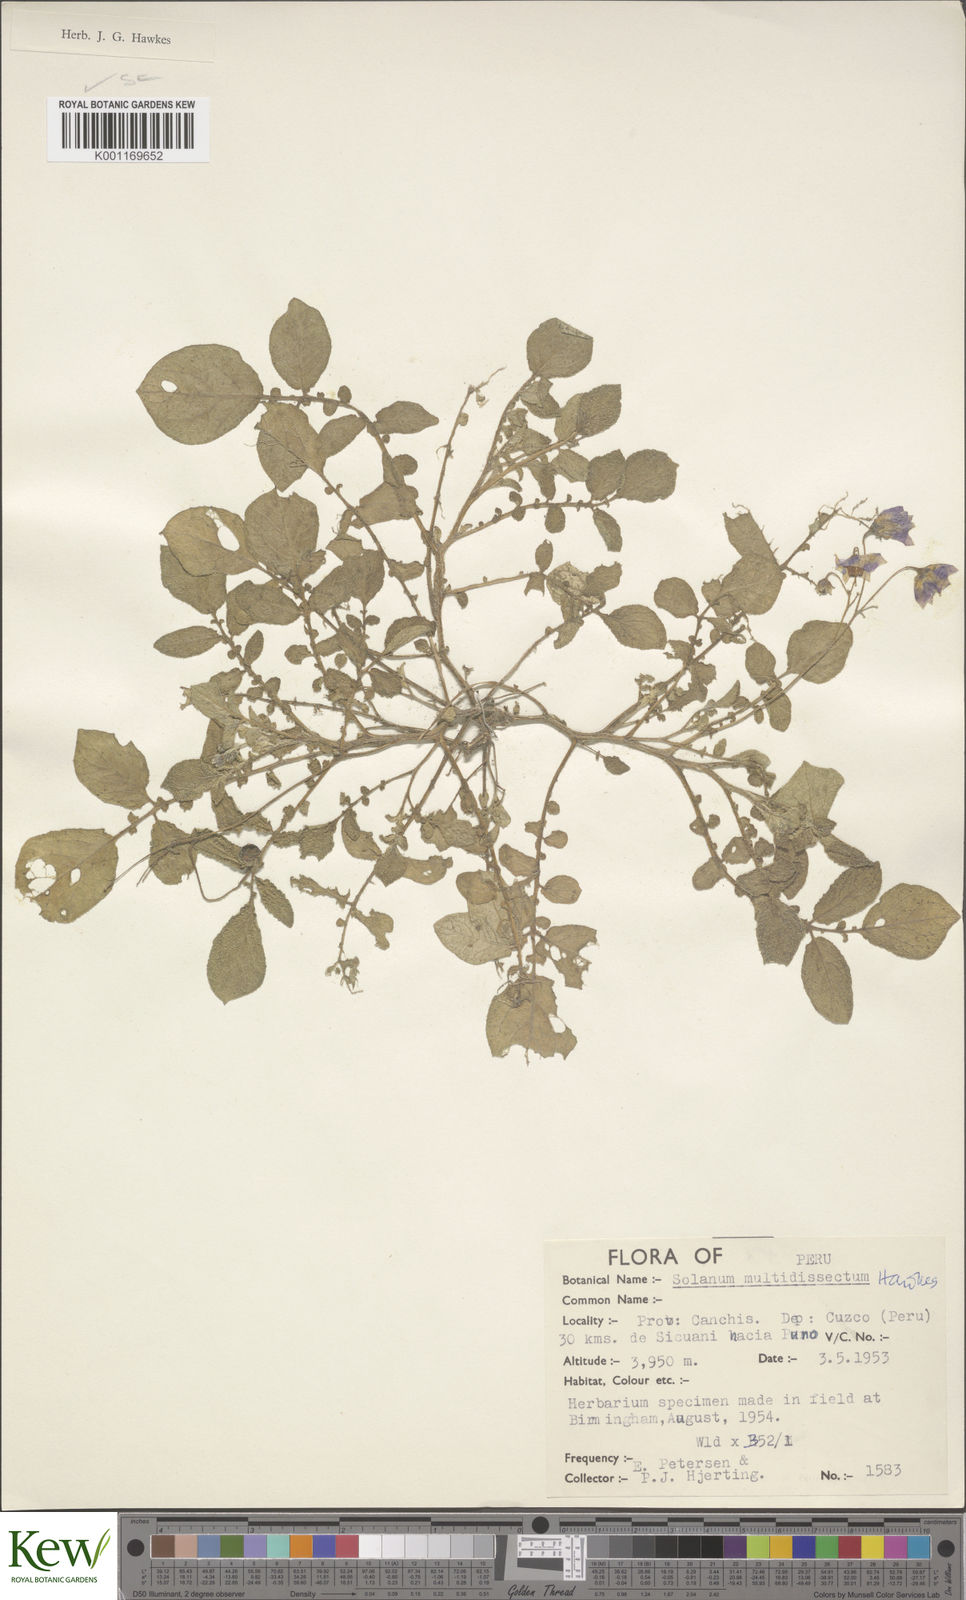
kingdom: Plantae
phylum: Tracheophyta
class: Magnoliopsida
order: Solanales
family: Solanaceae
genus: Solanum
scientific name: Solanum candolleanum
